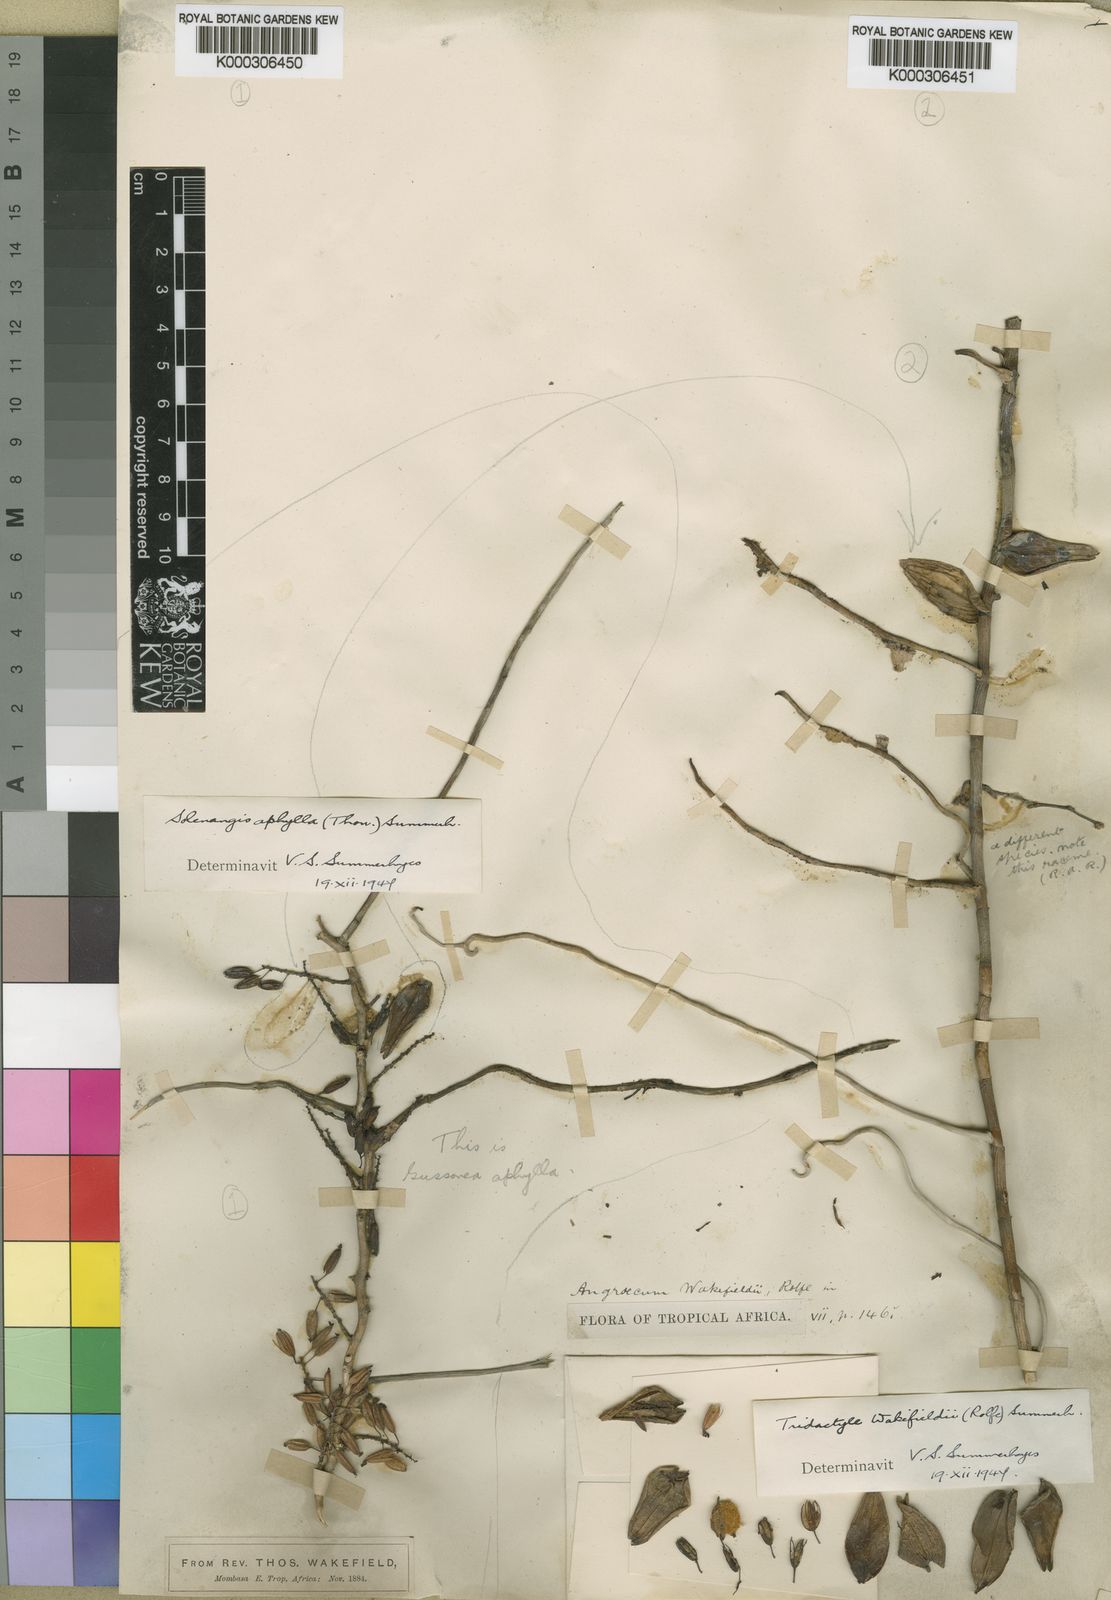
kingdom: Plantae
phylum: Tracheophyta
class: Liliopsida
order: Asparagales
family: Orchidaceae
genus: Solenangis
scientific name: Solenangis wakefieldii
